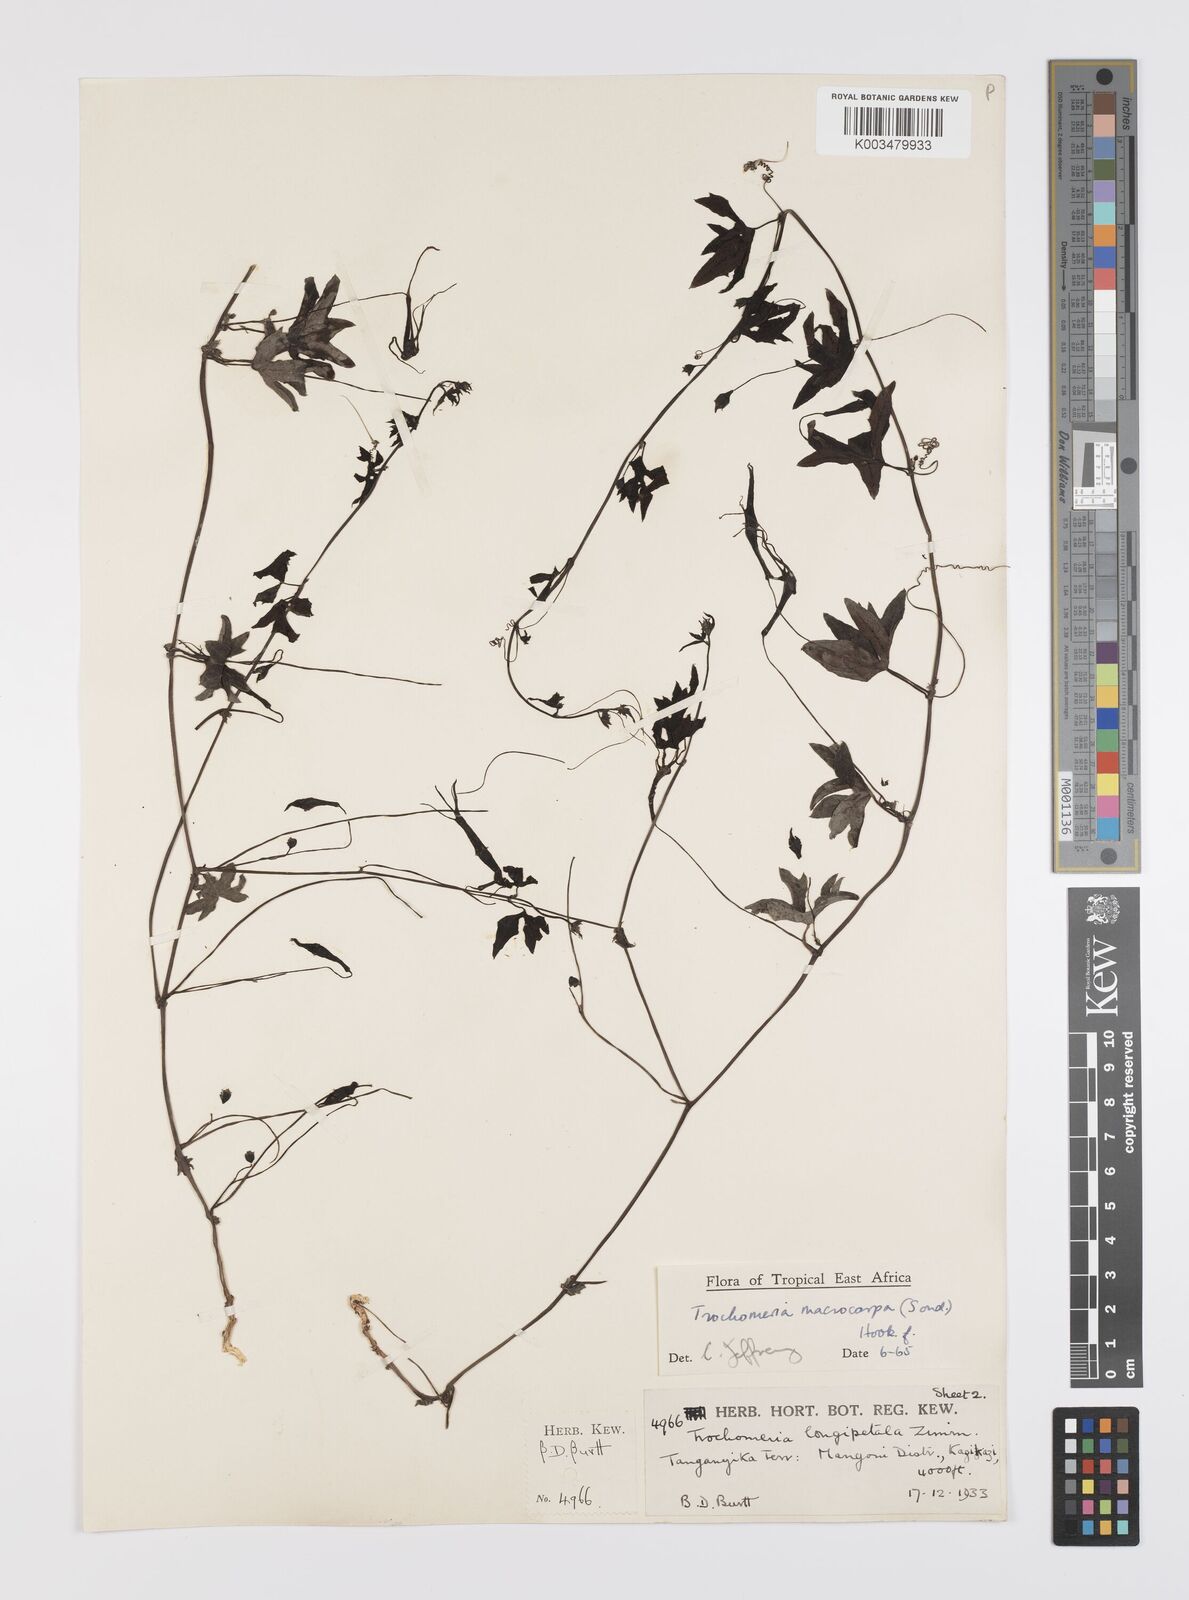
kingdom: Plantae
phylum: Tracheophyta
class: Magnoliopsida
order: Cucurbitales
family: Cucurbitaceae
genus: Trochomeria
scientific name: Trochomeria macrocarpa
